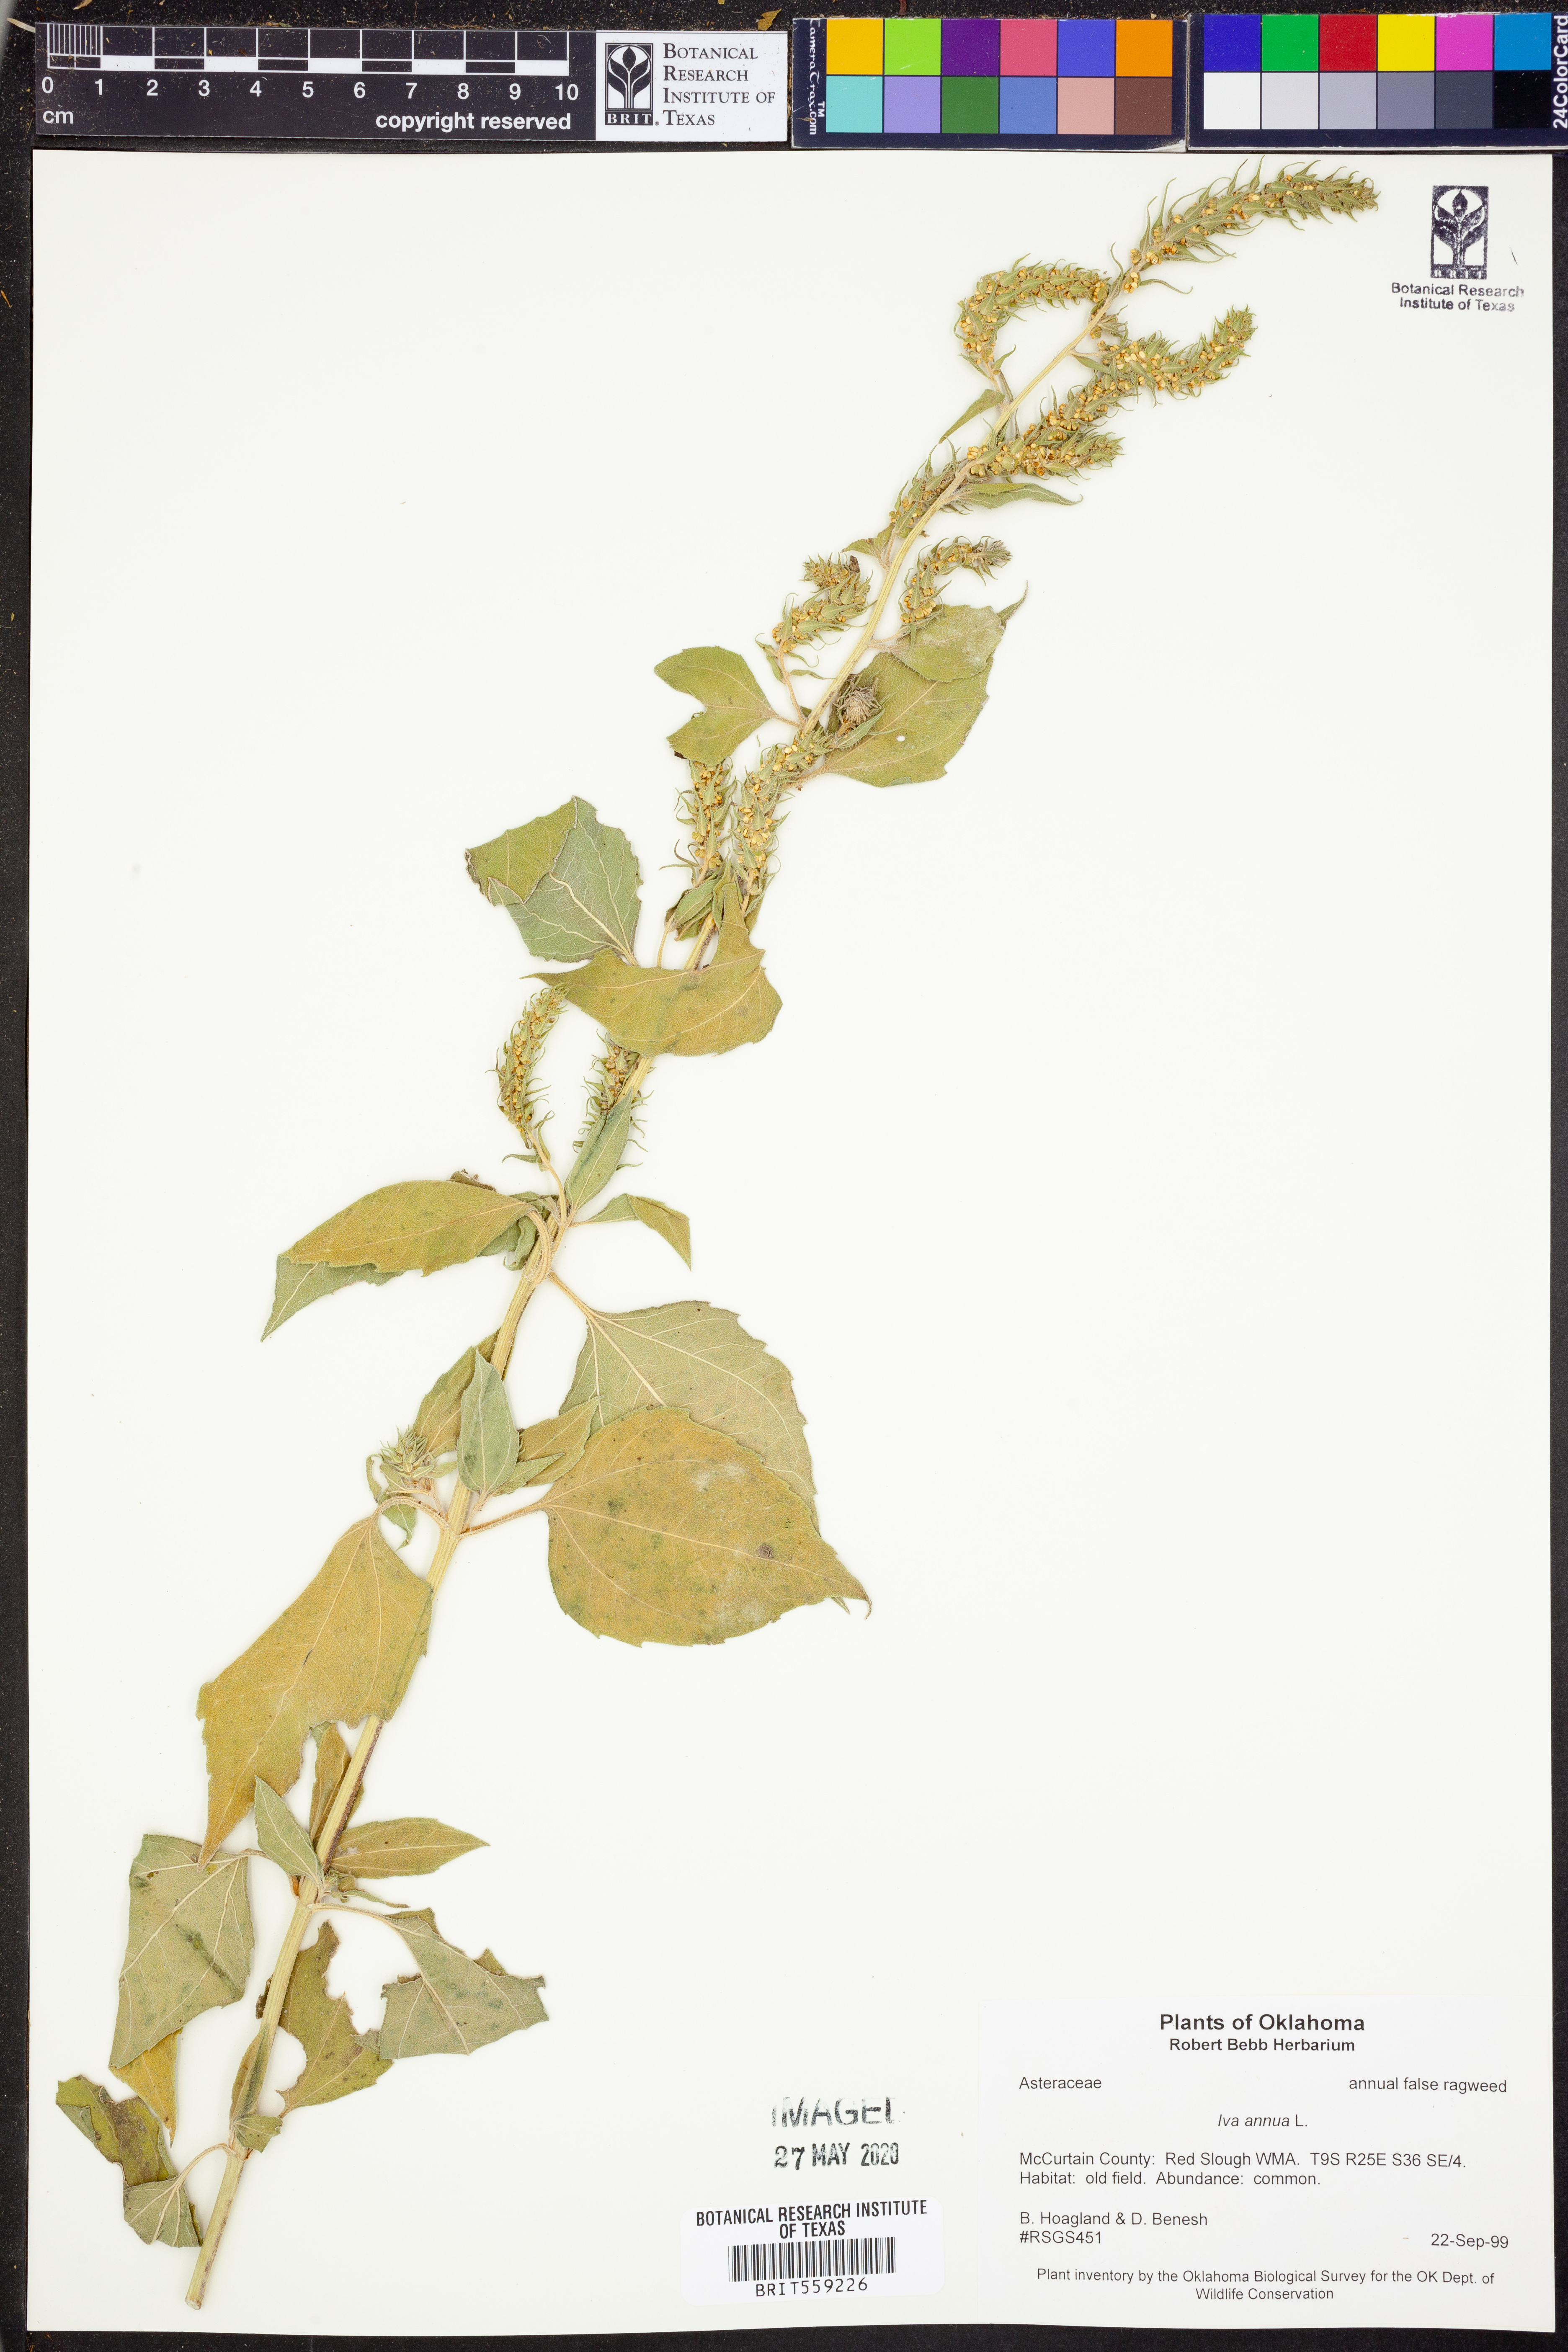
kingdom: Plantae
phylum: Tracheophyta
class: Magnoliopsida
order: Asterales
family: Asteraceae
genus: Iva
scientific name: Iva annua
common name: Marsh-elder
